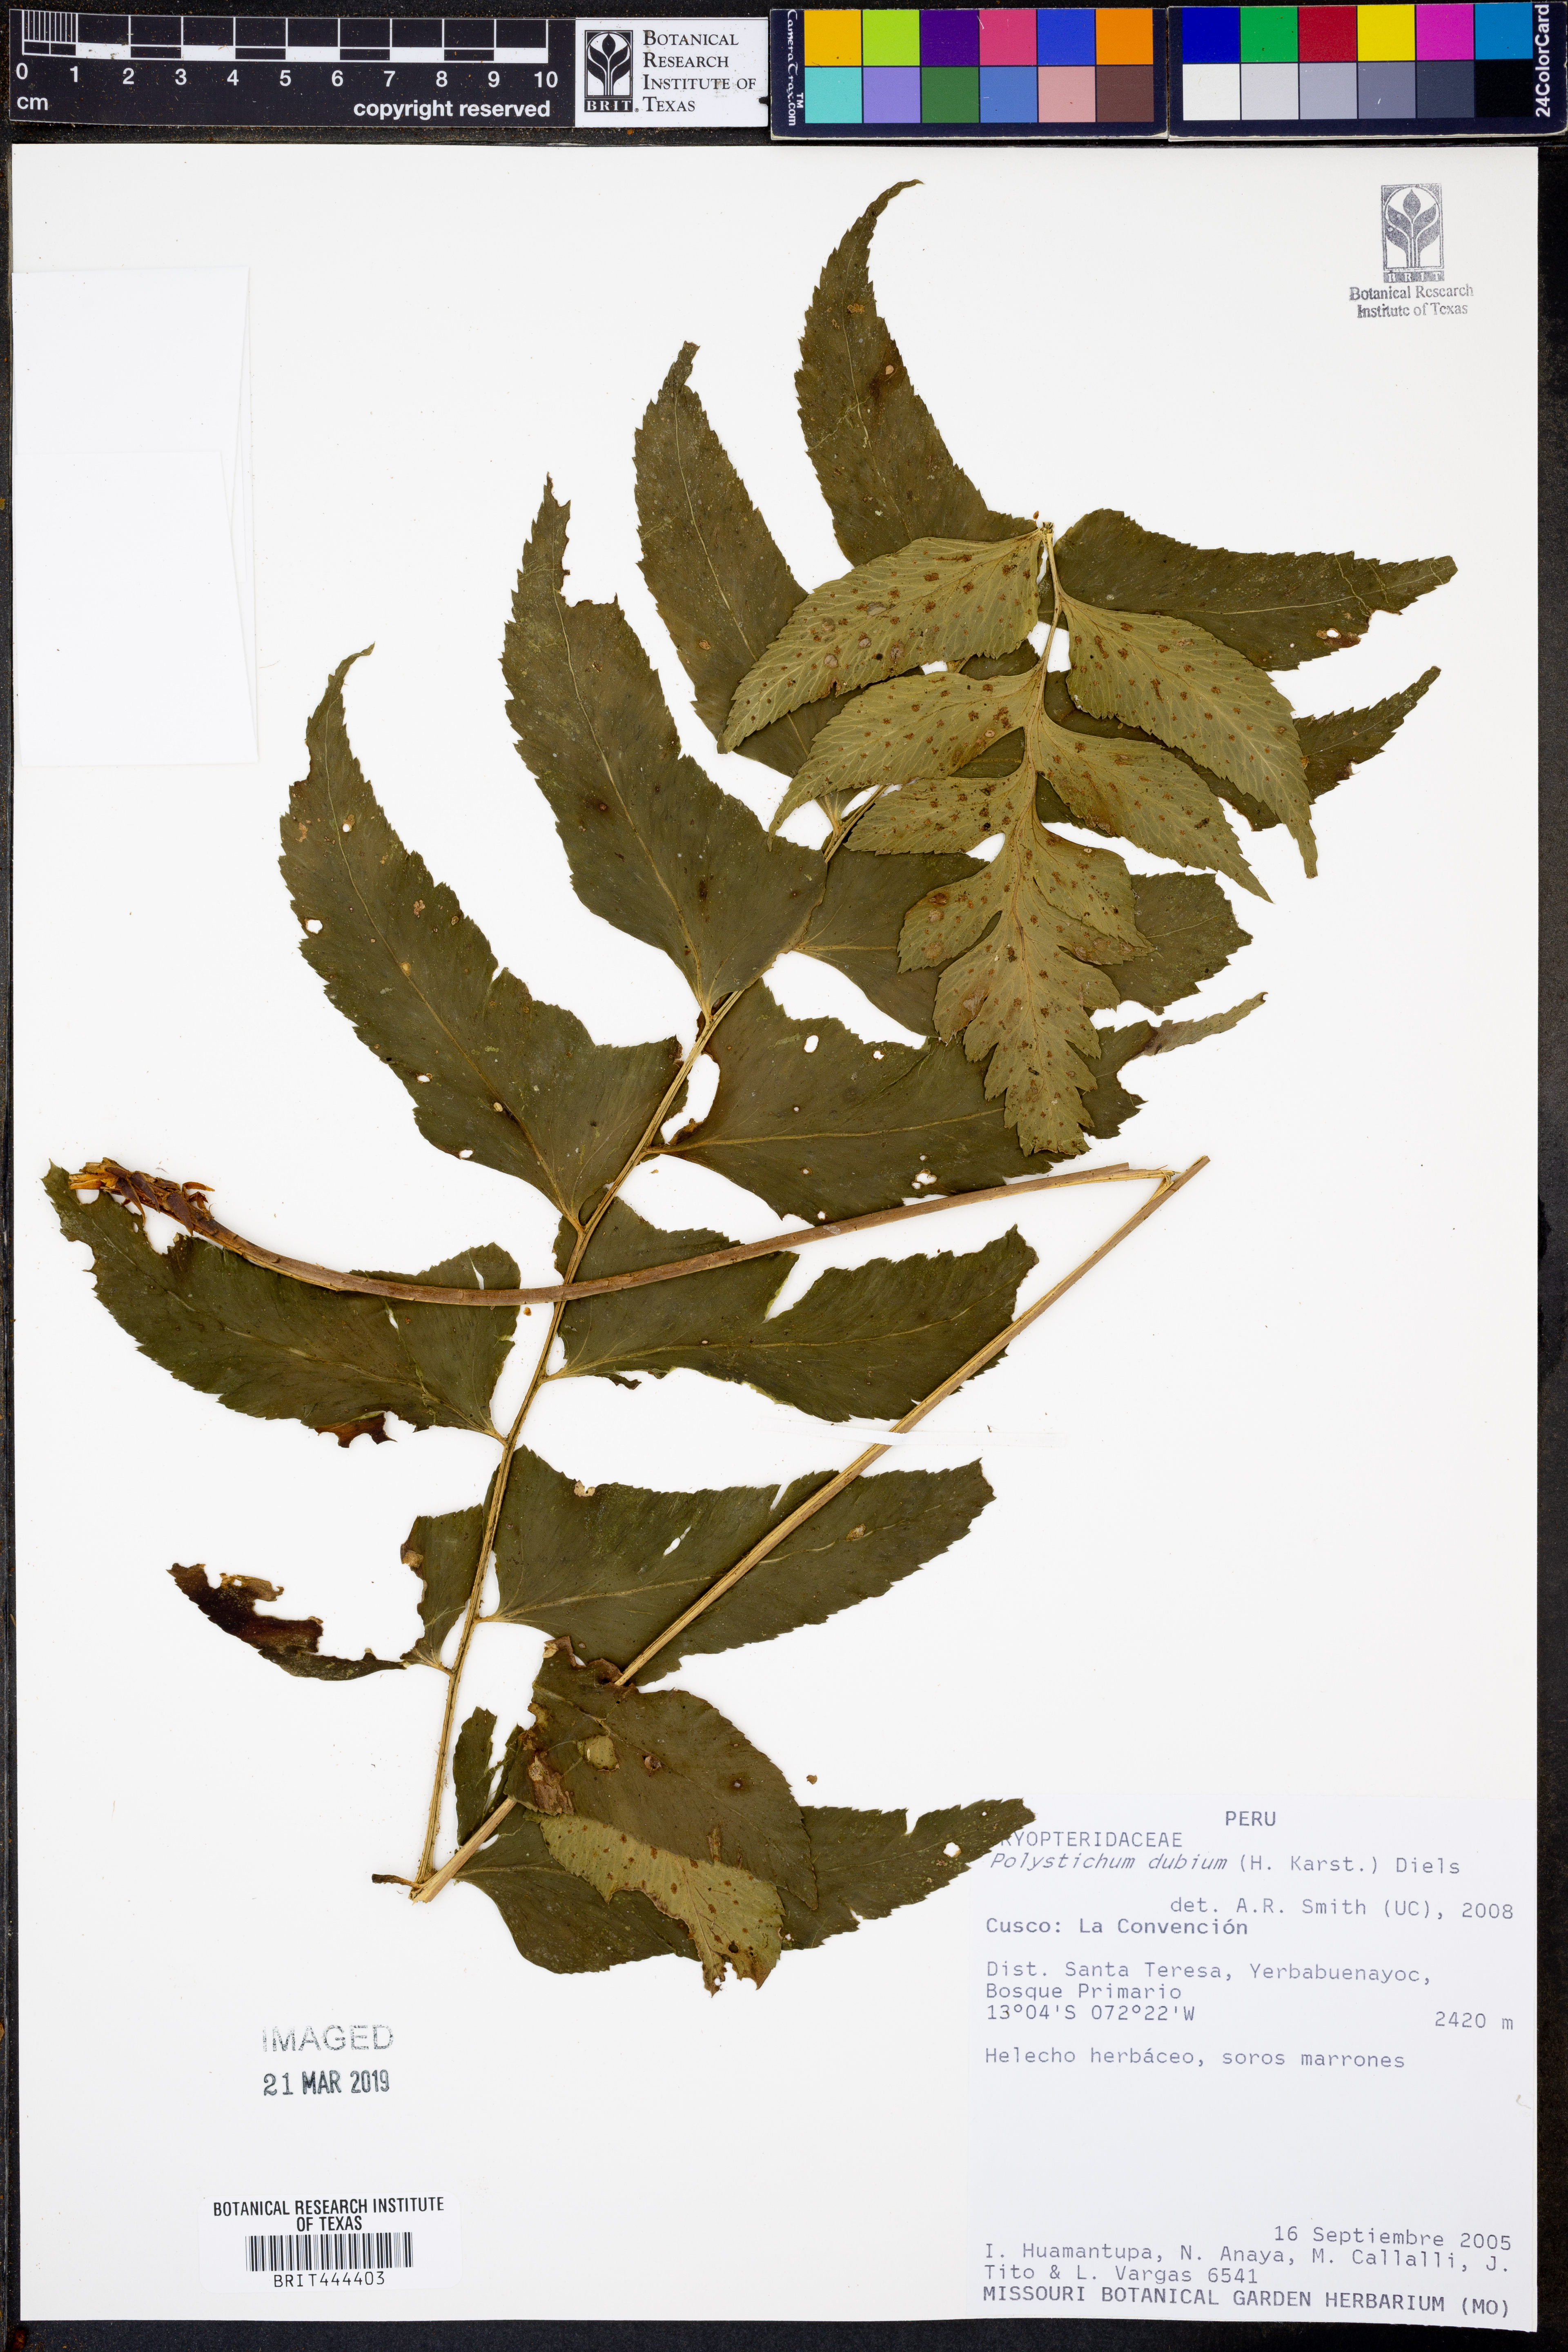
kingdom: Plantae
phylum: Tracheophyta
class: Polypodiopsida
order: Polypodiales
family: Dryopteridaceae
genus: Polystichum
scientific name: Polystichum dubium
